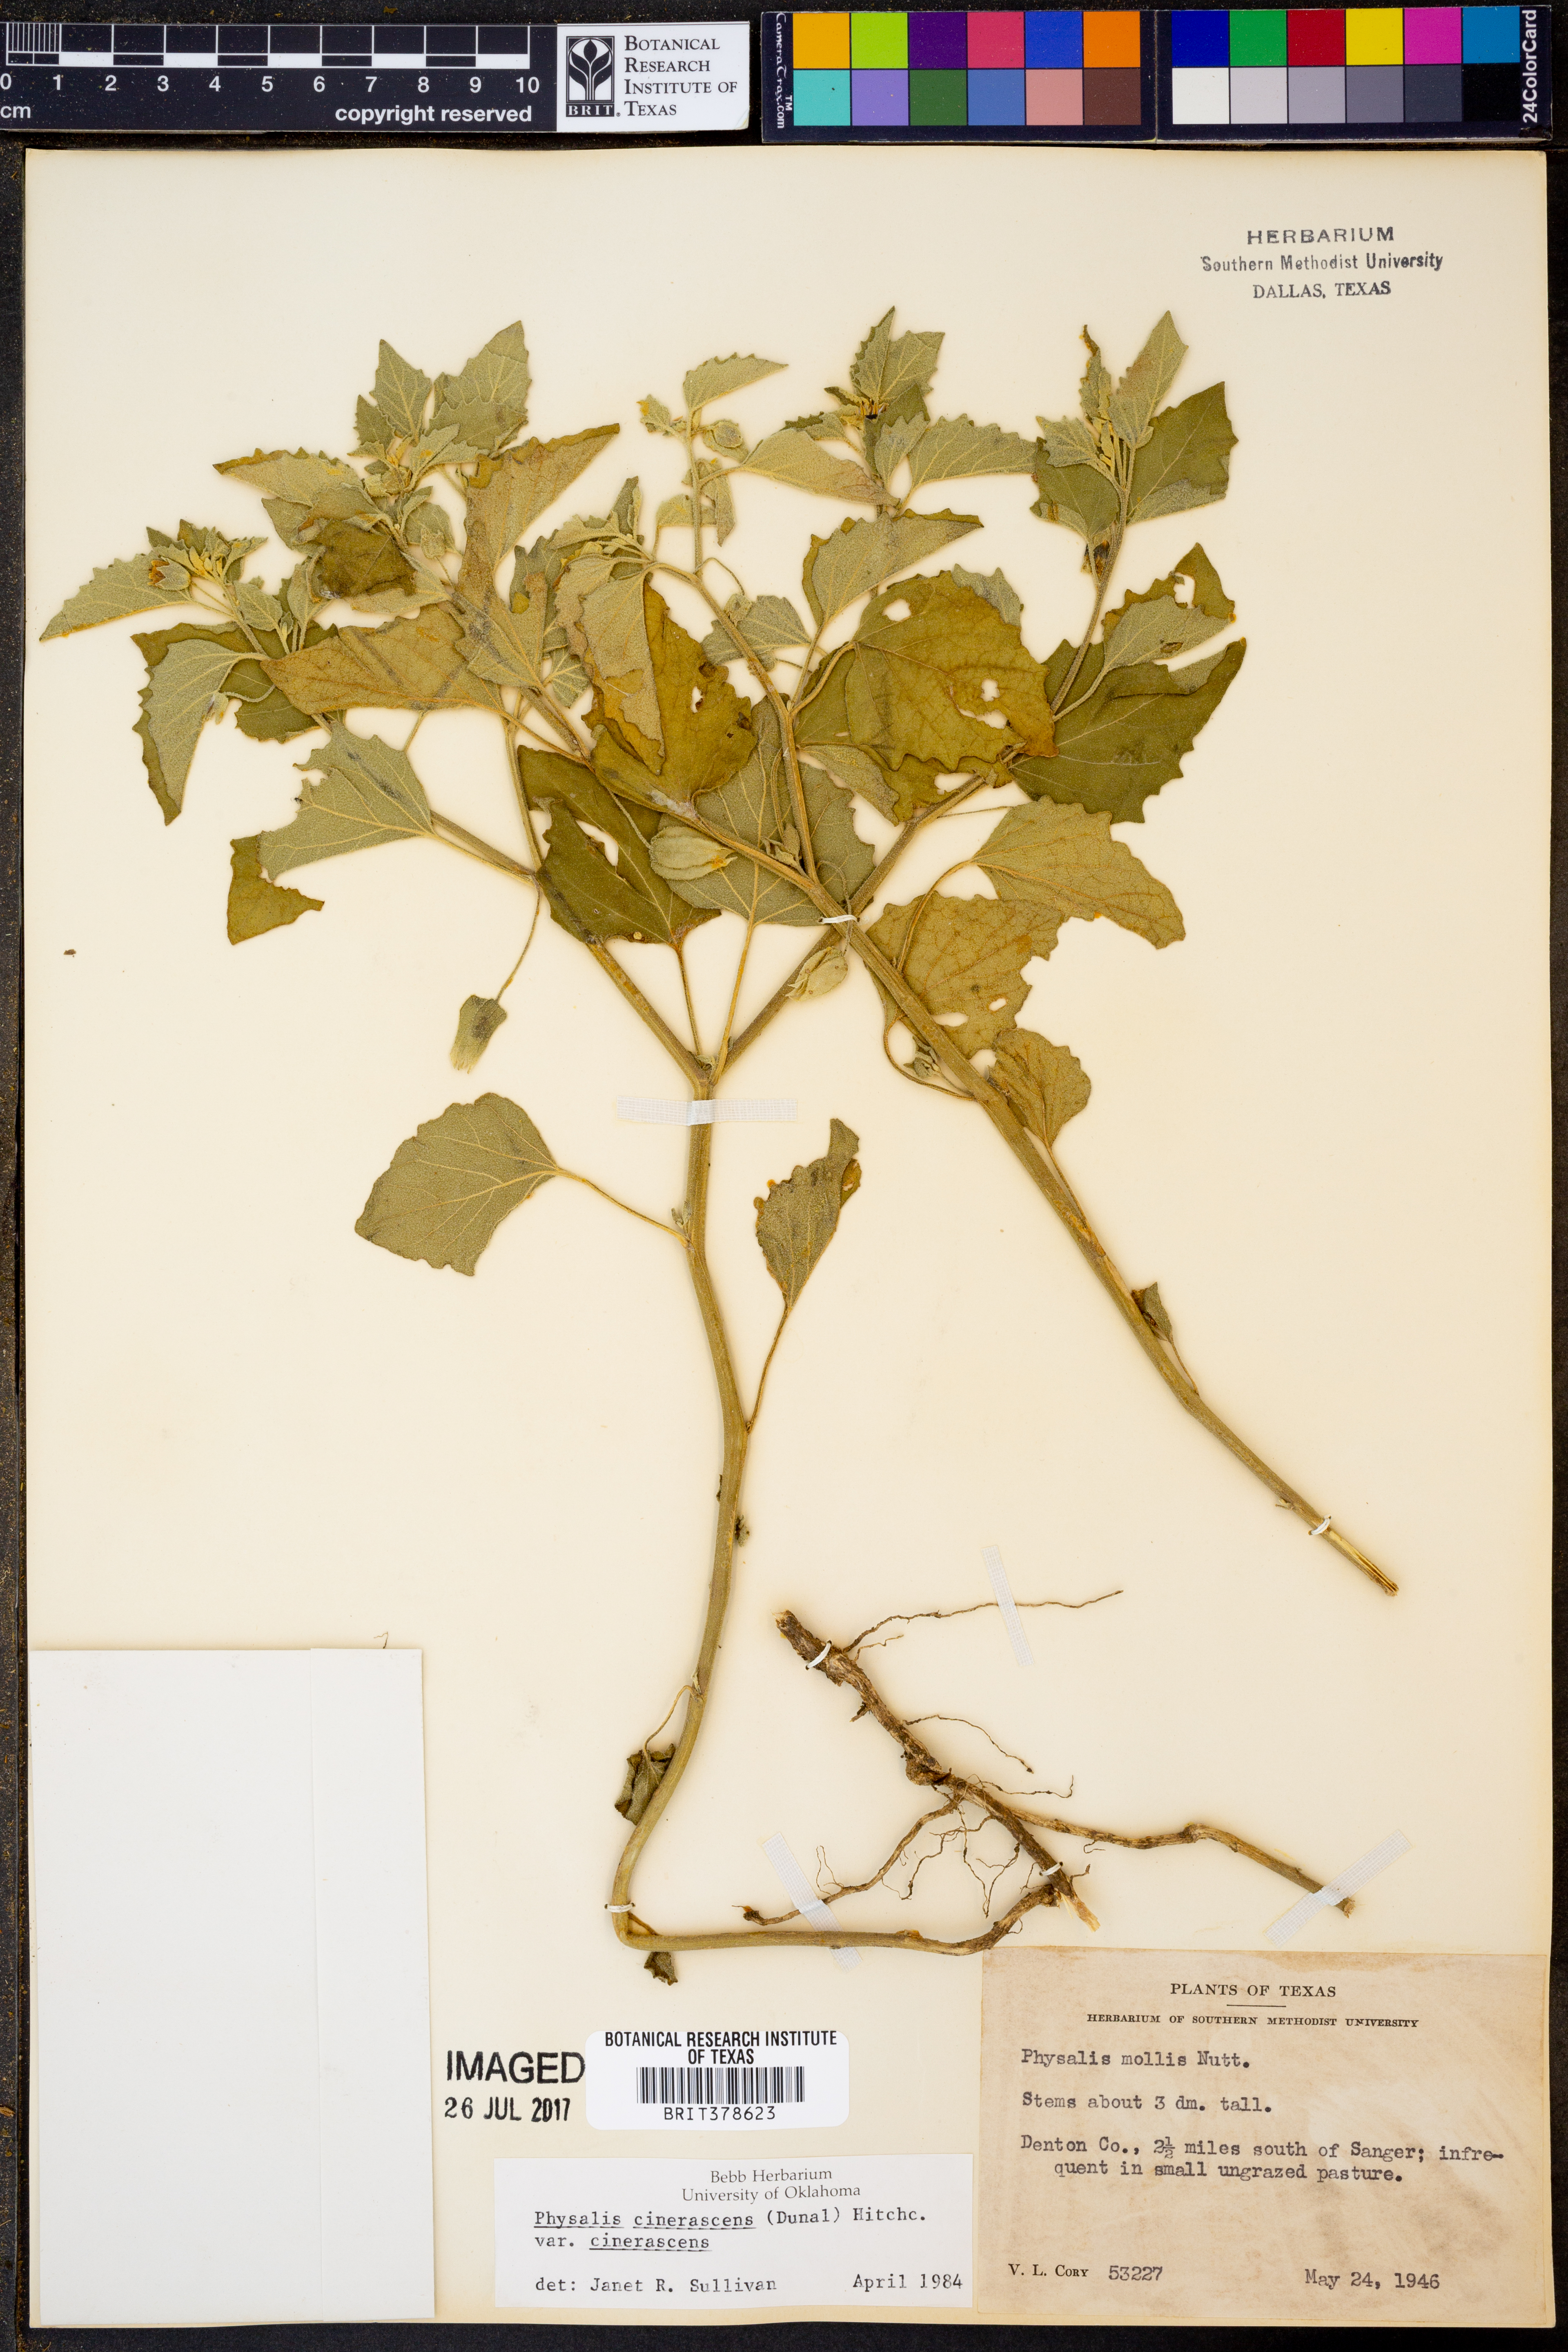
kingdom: Plantae
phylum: Tracheophyta
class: Magnoliopsida
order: Solanales
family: Solanaceae
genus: Physalis
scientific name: Physalis cinerascens
